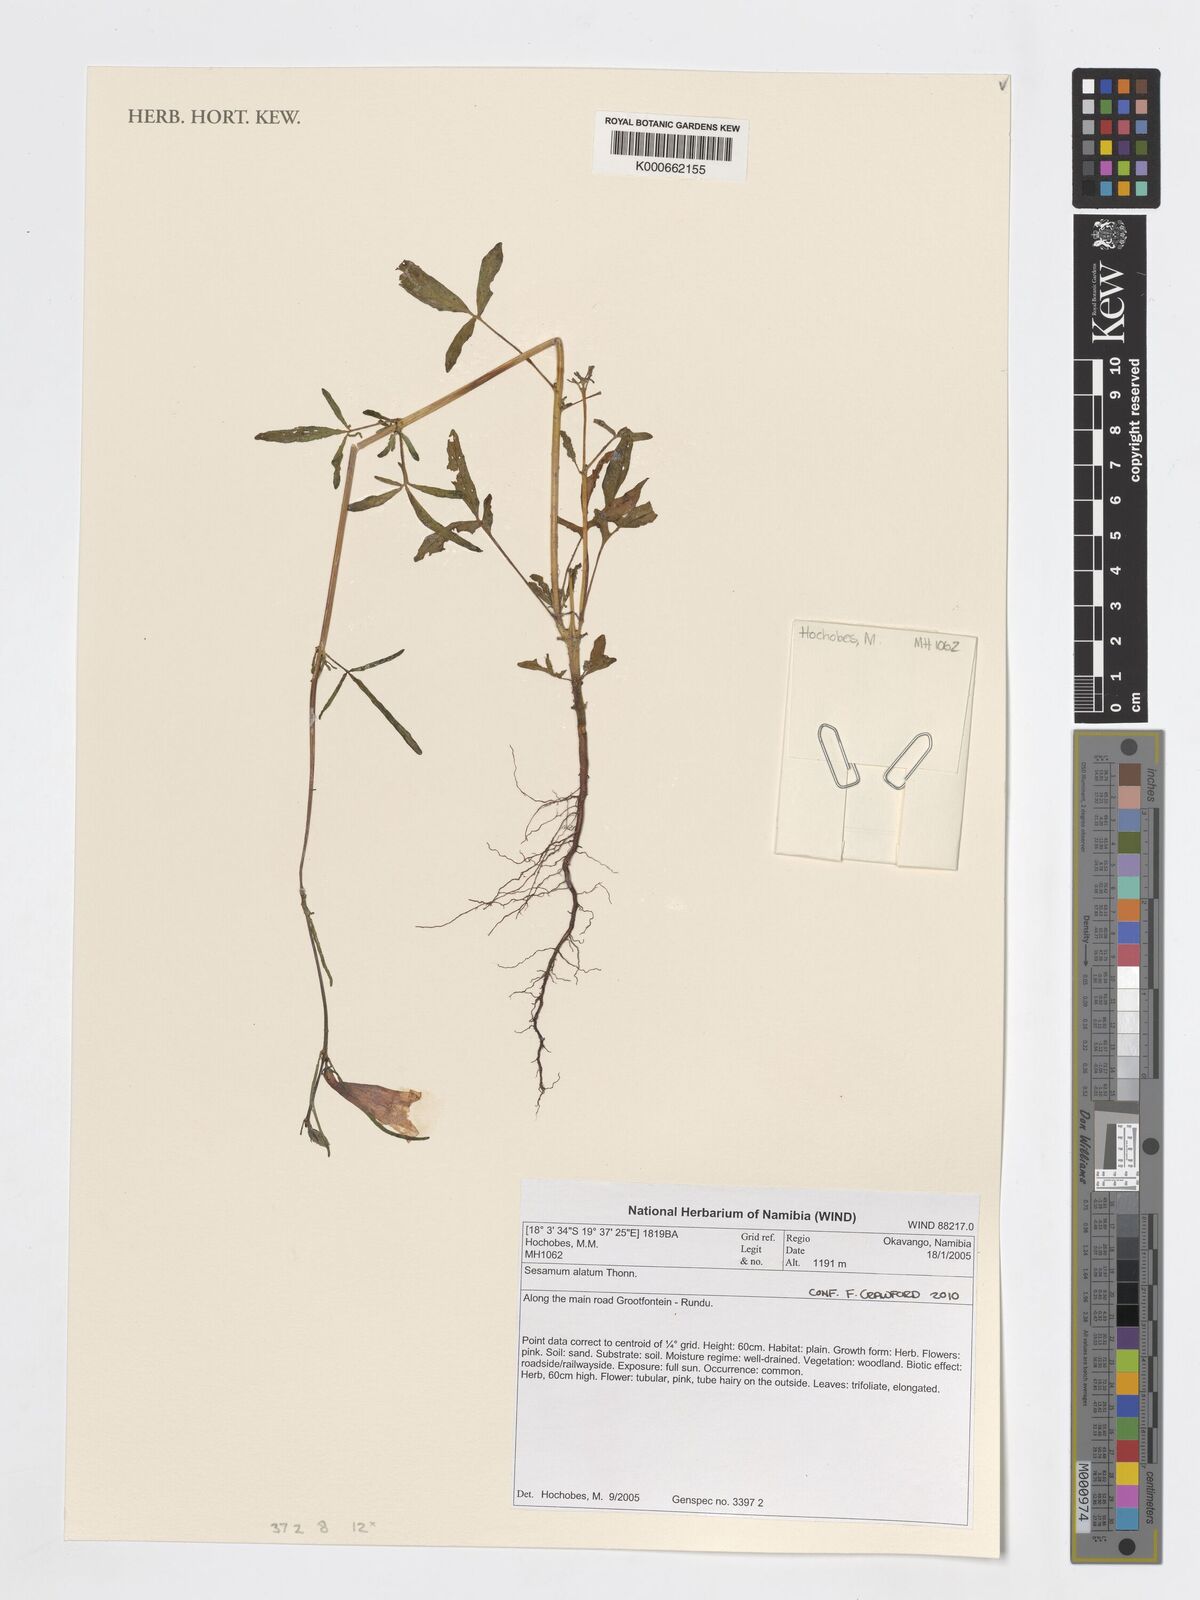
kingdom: Plantae
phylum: Tracheophyta
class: Magnoliopsida
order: Lamiales
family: Pedaliaceae
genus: Sesamum
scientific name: Sesamum alatum
